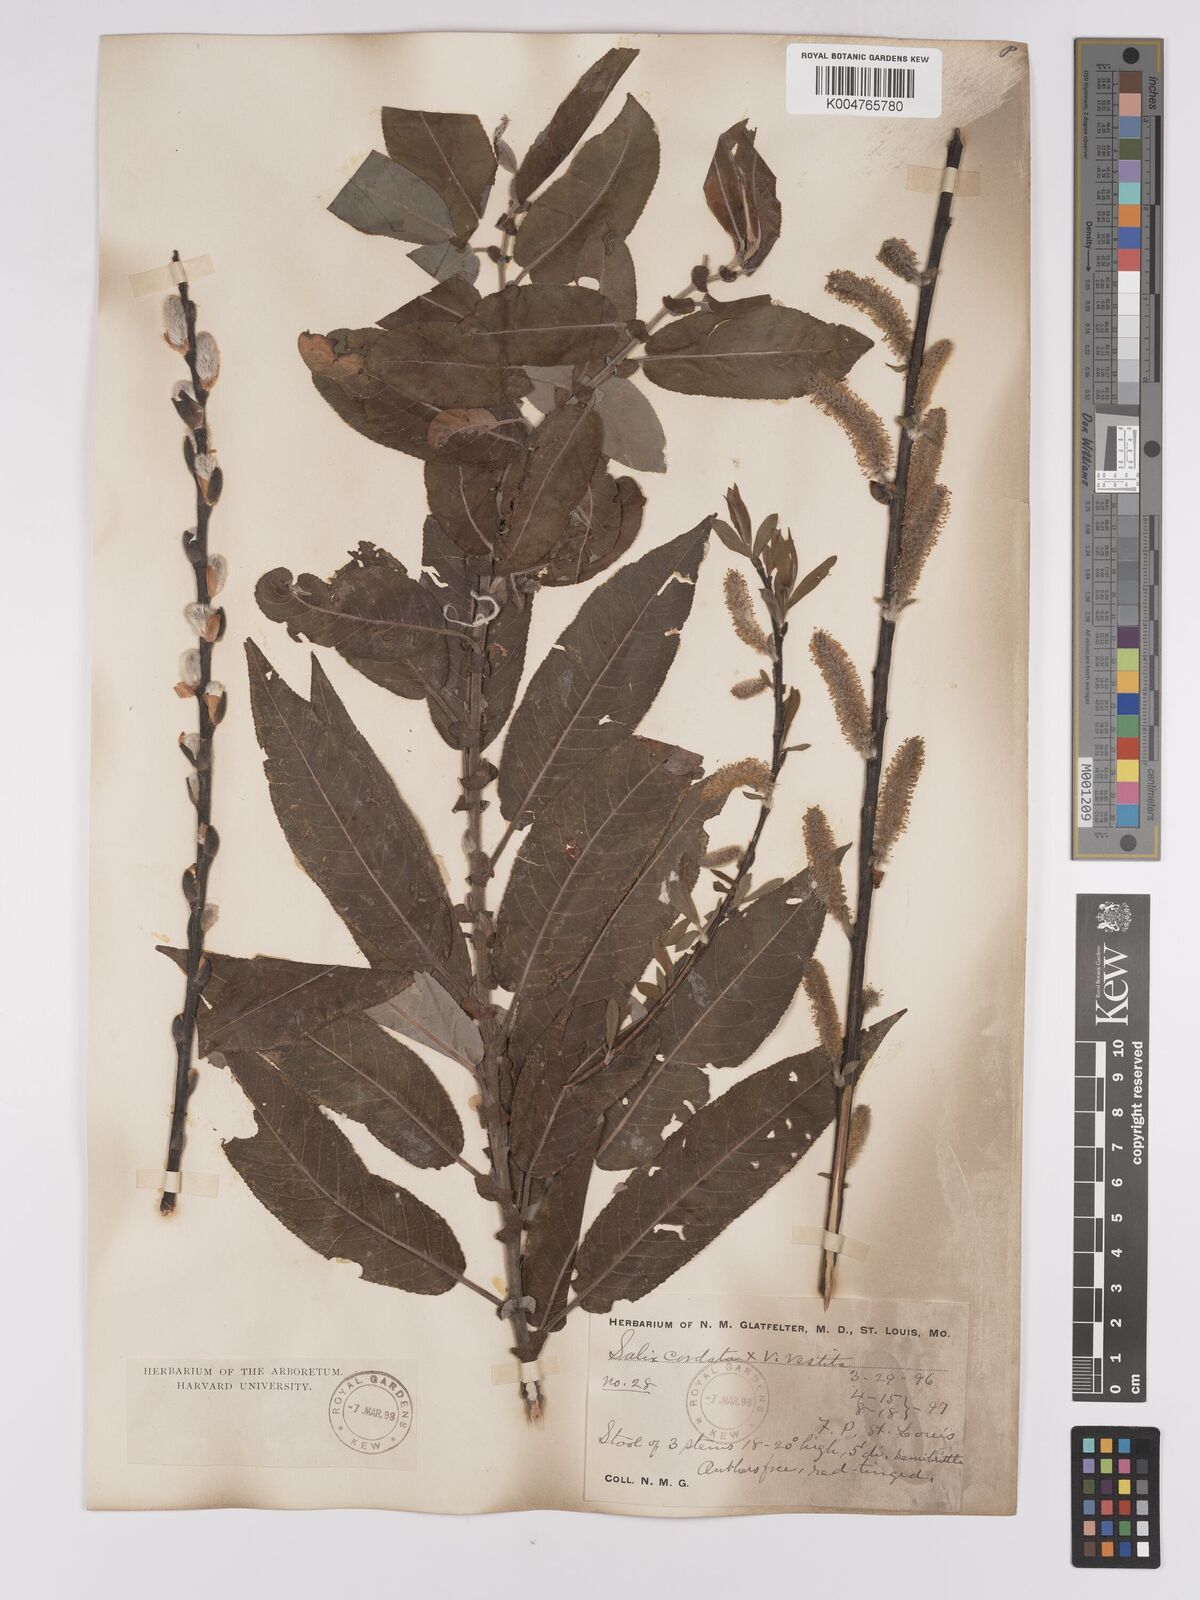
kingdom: Plantae
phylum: Tracheophyta
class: Magnoliopsida
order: Malpighiales
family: Salicaceae
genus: Salix
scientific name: Salix cordata
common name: Heart-leaf willow
